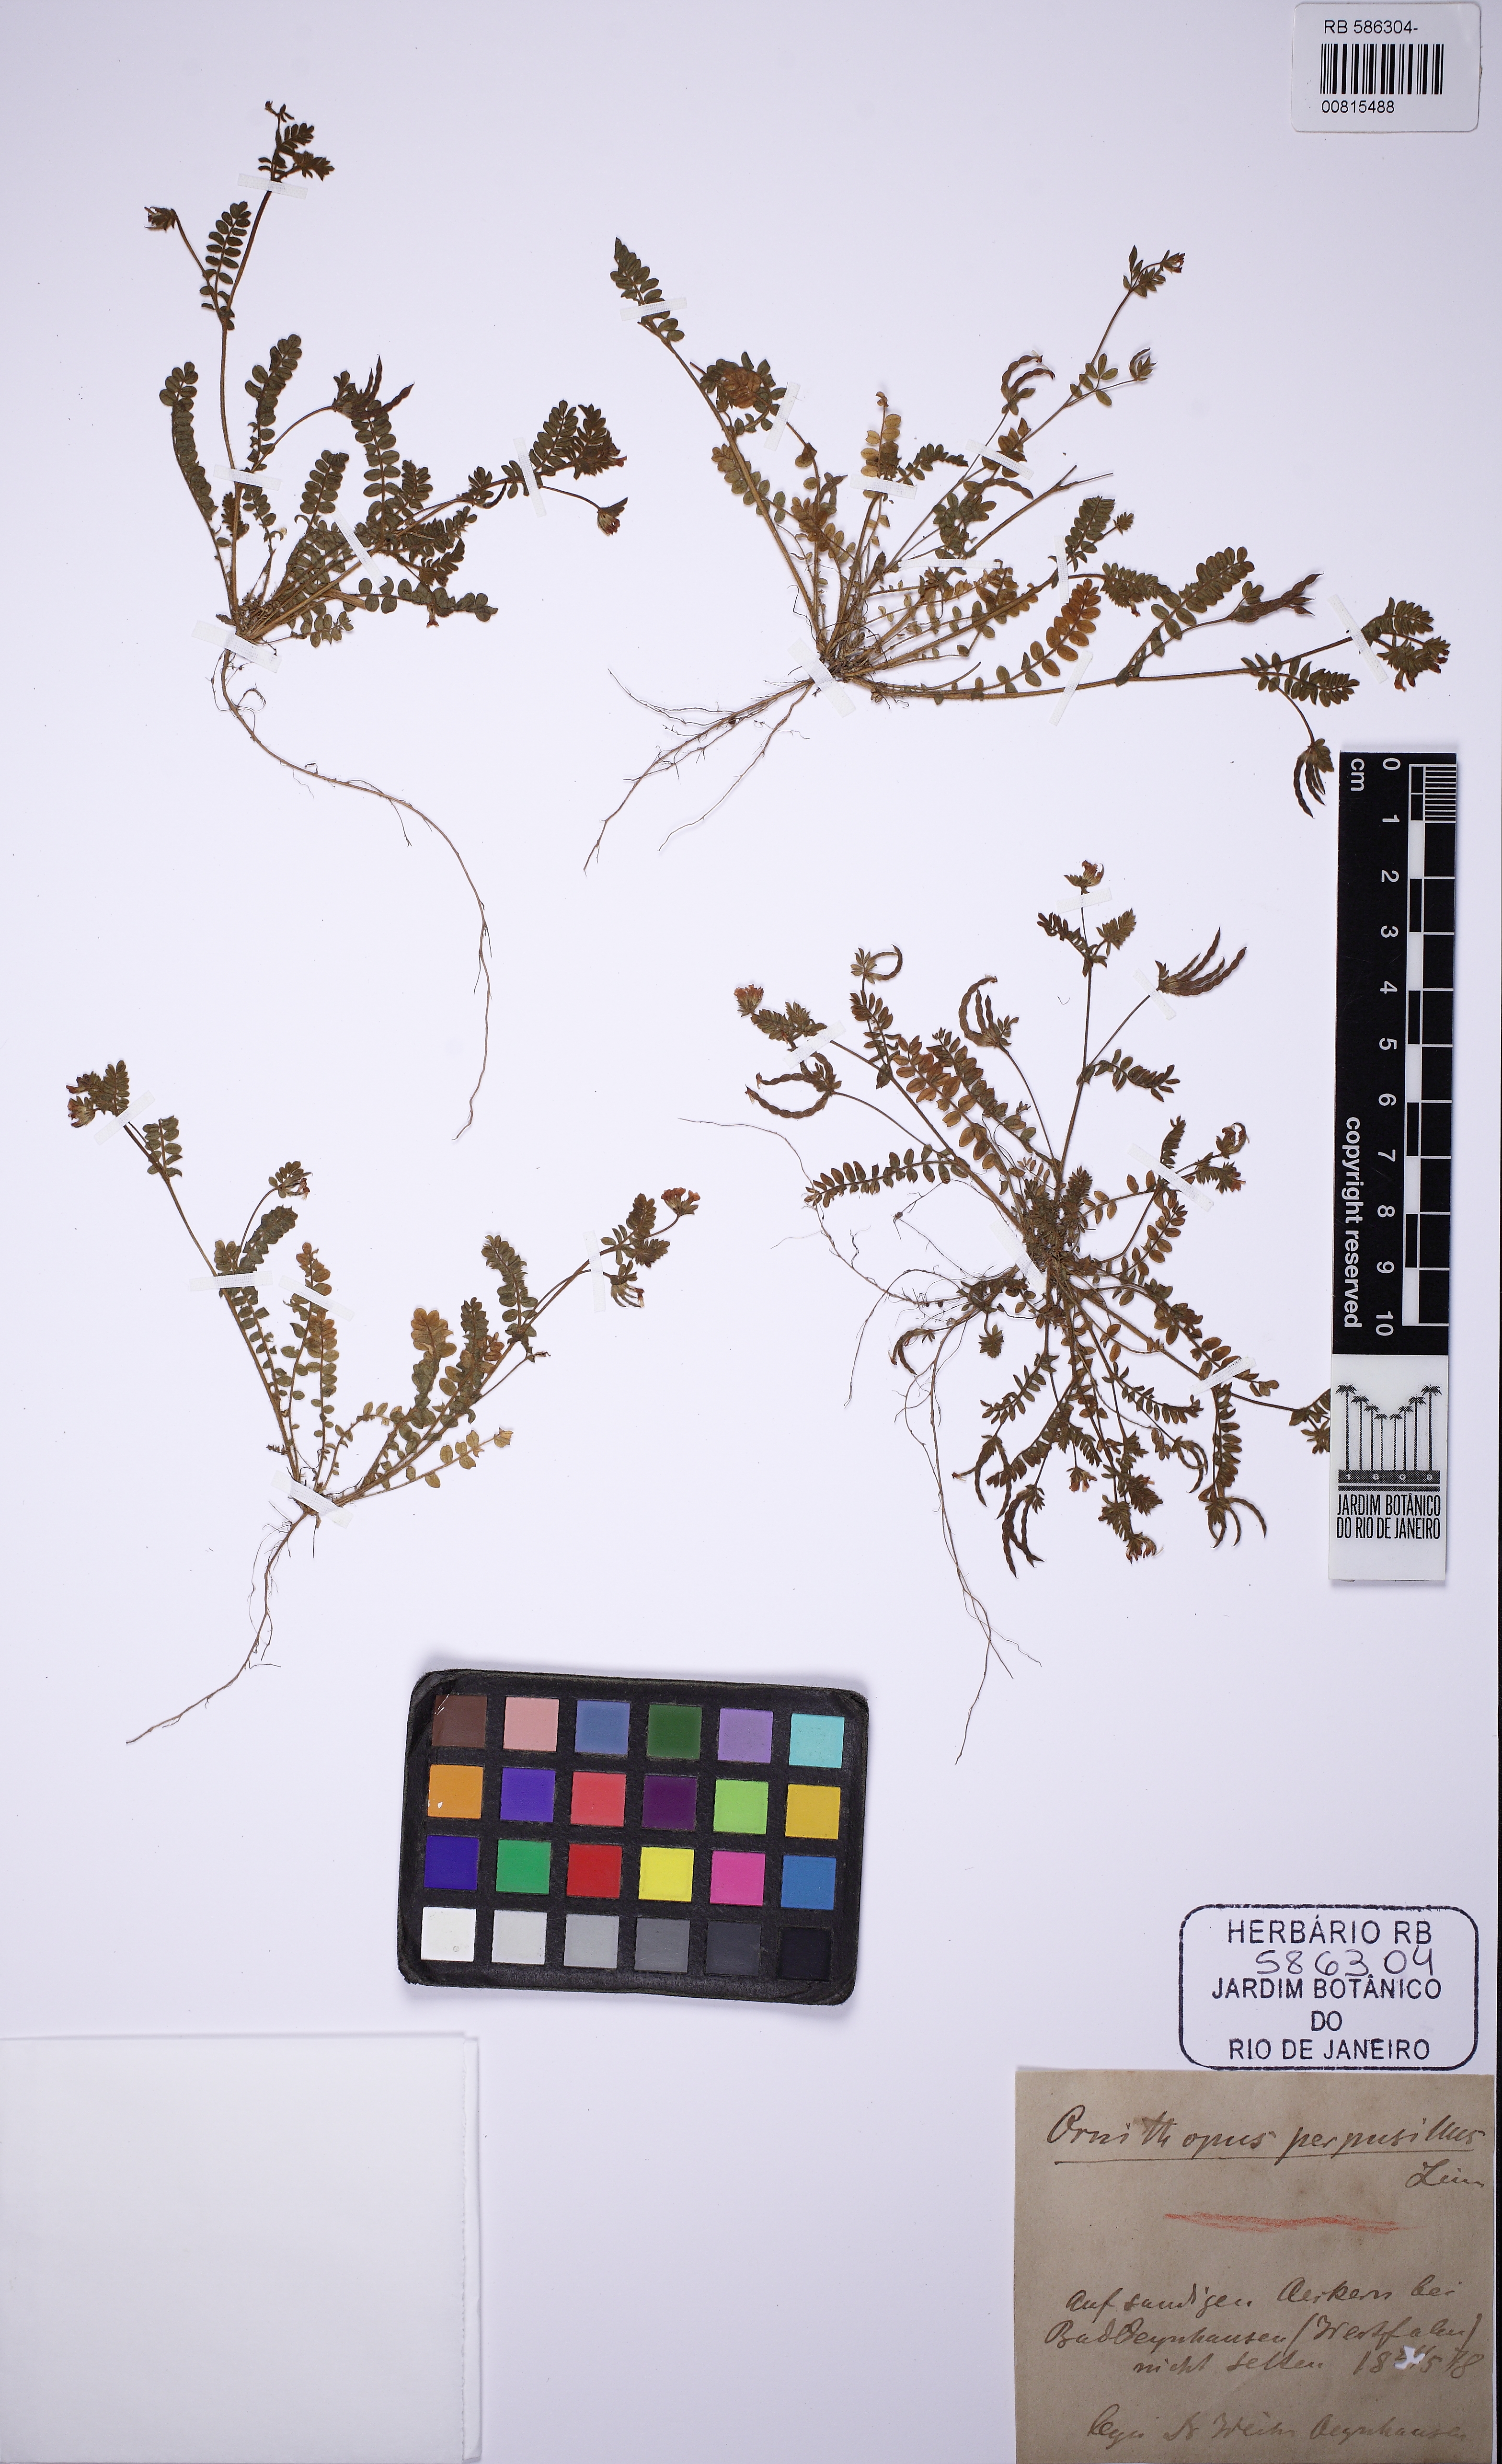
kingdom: Plantae
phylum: Tracheophyta
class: Magnoliopsida
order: Fabales
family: Fabaceae
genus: Ornithopus
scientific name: Ornithopus perpusillus
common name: Bird's-foot
